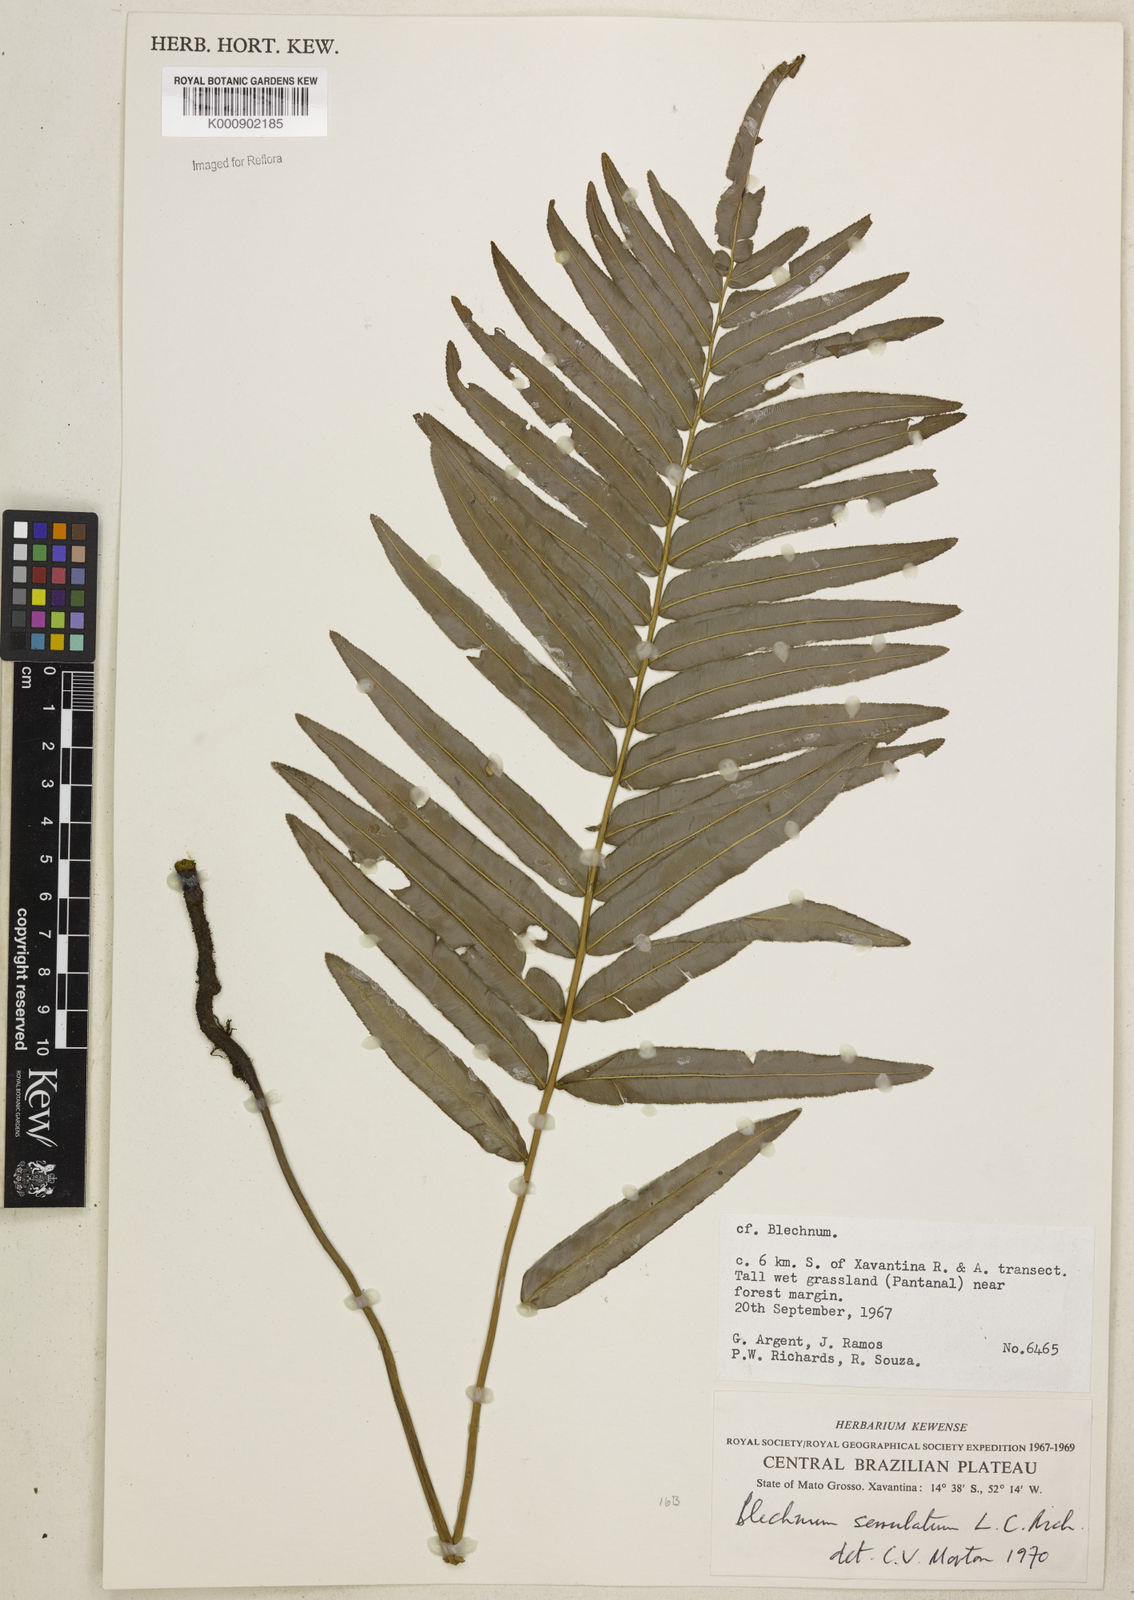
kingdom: Plantae
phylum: Tracheophyta
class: Polypodiopsida
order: Polypodiales
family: Blechnaceae
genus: Telmatoblechnum
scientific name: Telmatoblechnum serrulatum
